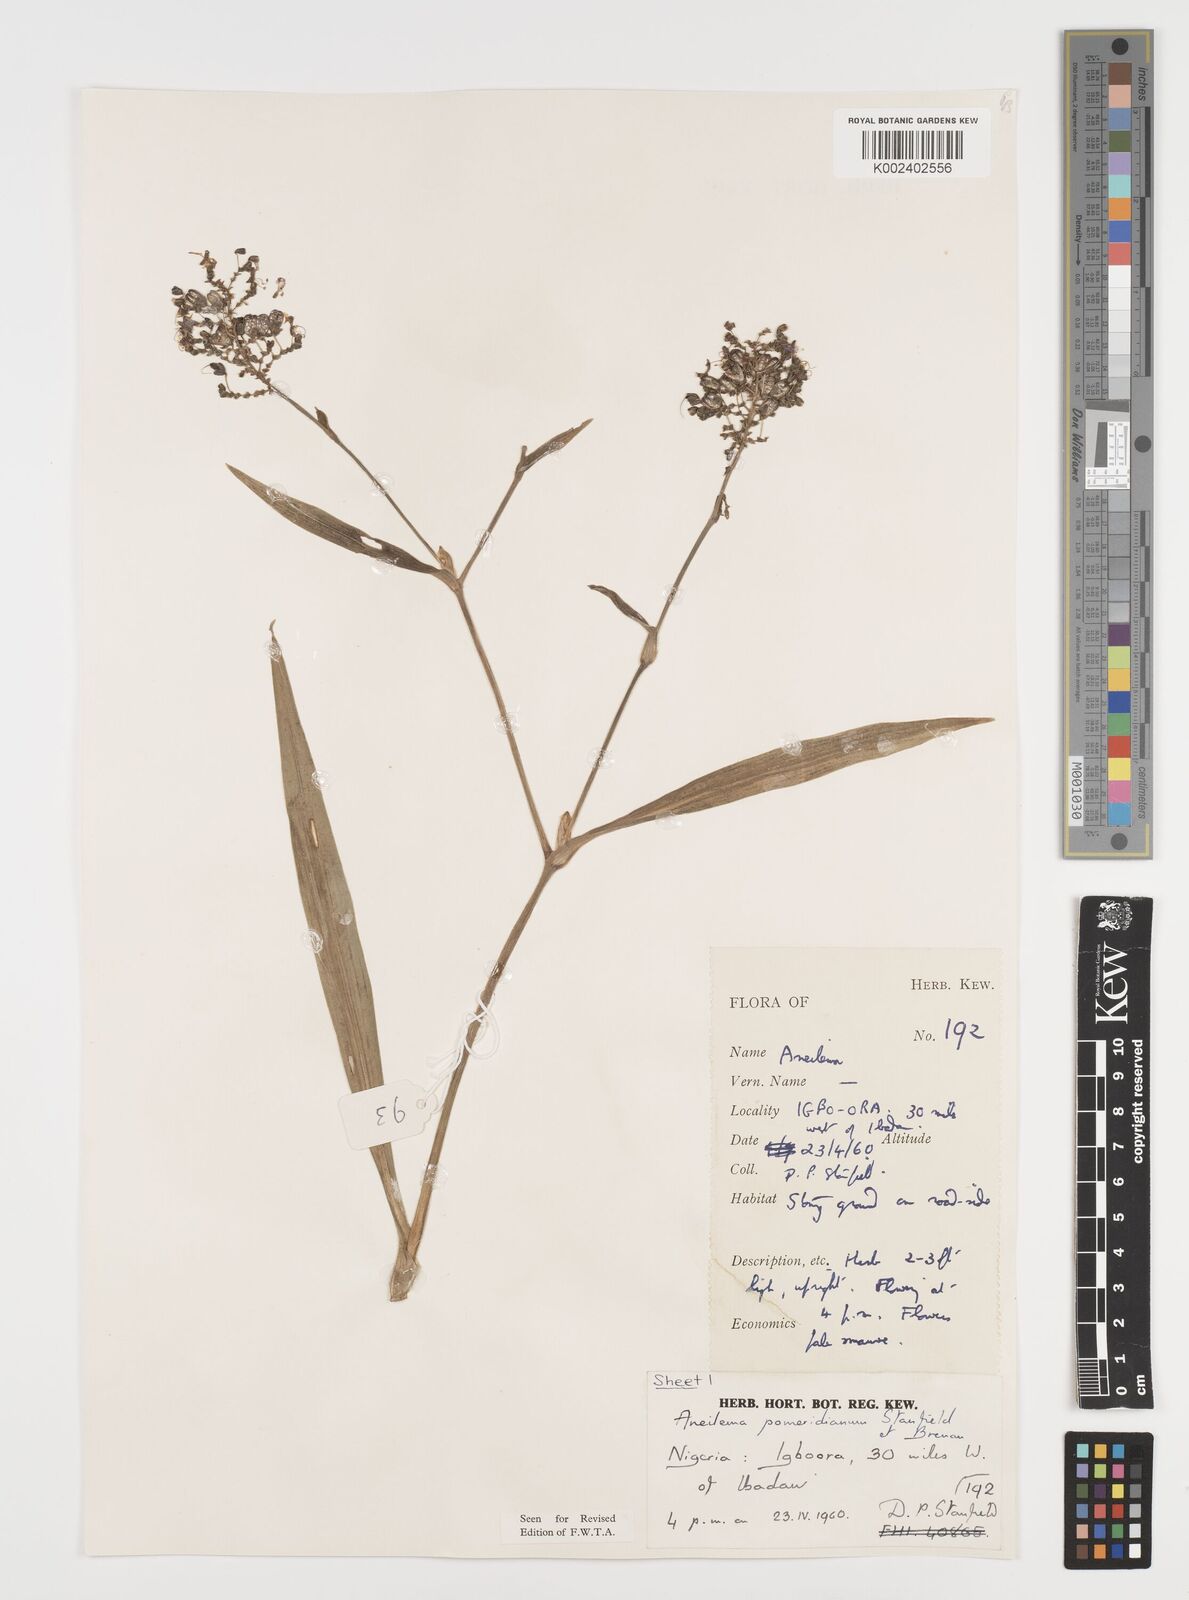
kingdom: Plantae
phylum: Tracheophyta
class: Liliopsida
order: Commelinales
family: Commelinaceae
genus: Aneilema
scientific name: Aneilema pomeridianum
